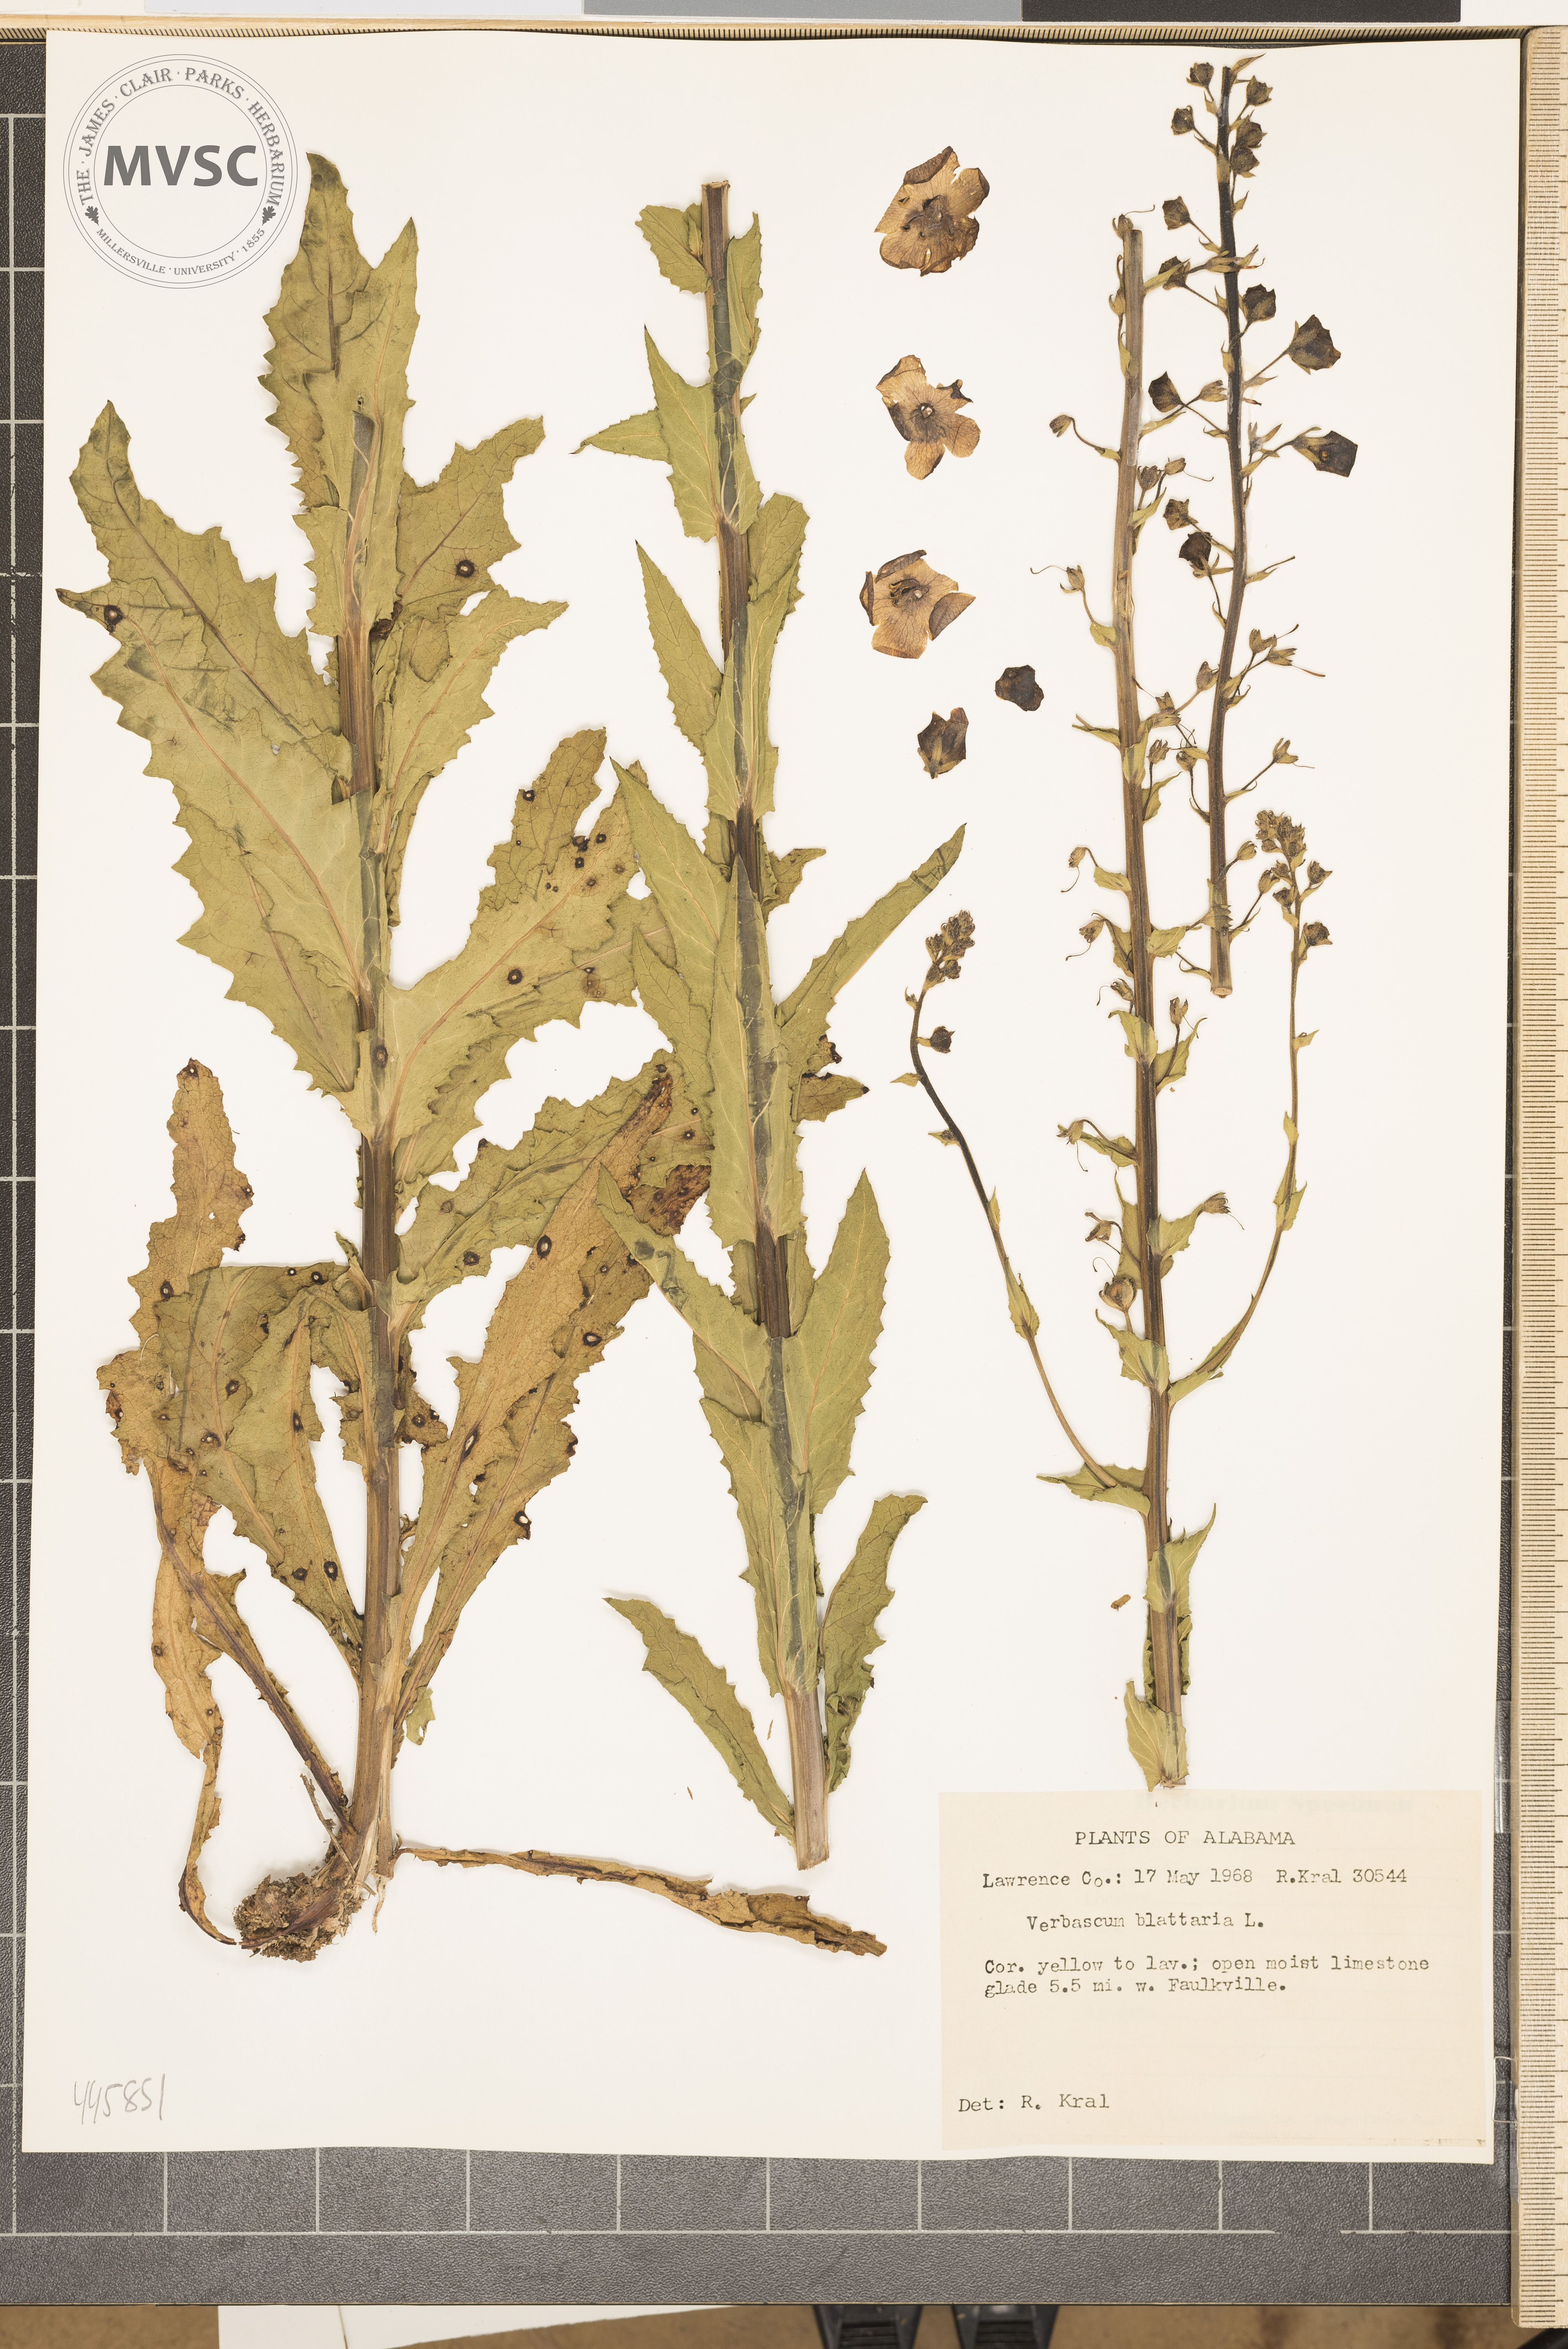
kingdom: Plantae
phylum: Tracheophyta
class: Magnoliopsida
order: Lamiales
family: Scrophulariaceae
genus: Verbascum
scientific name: Verbascum blattaria
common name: Moth mullein
